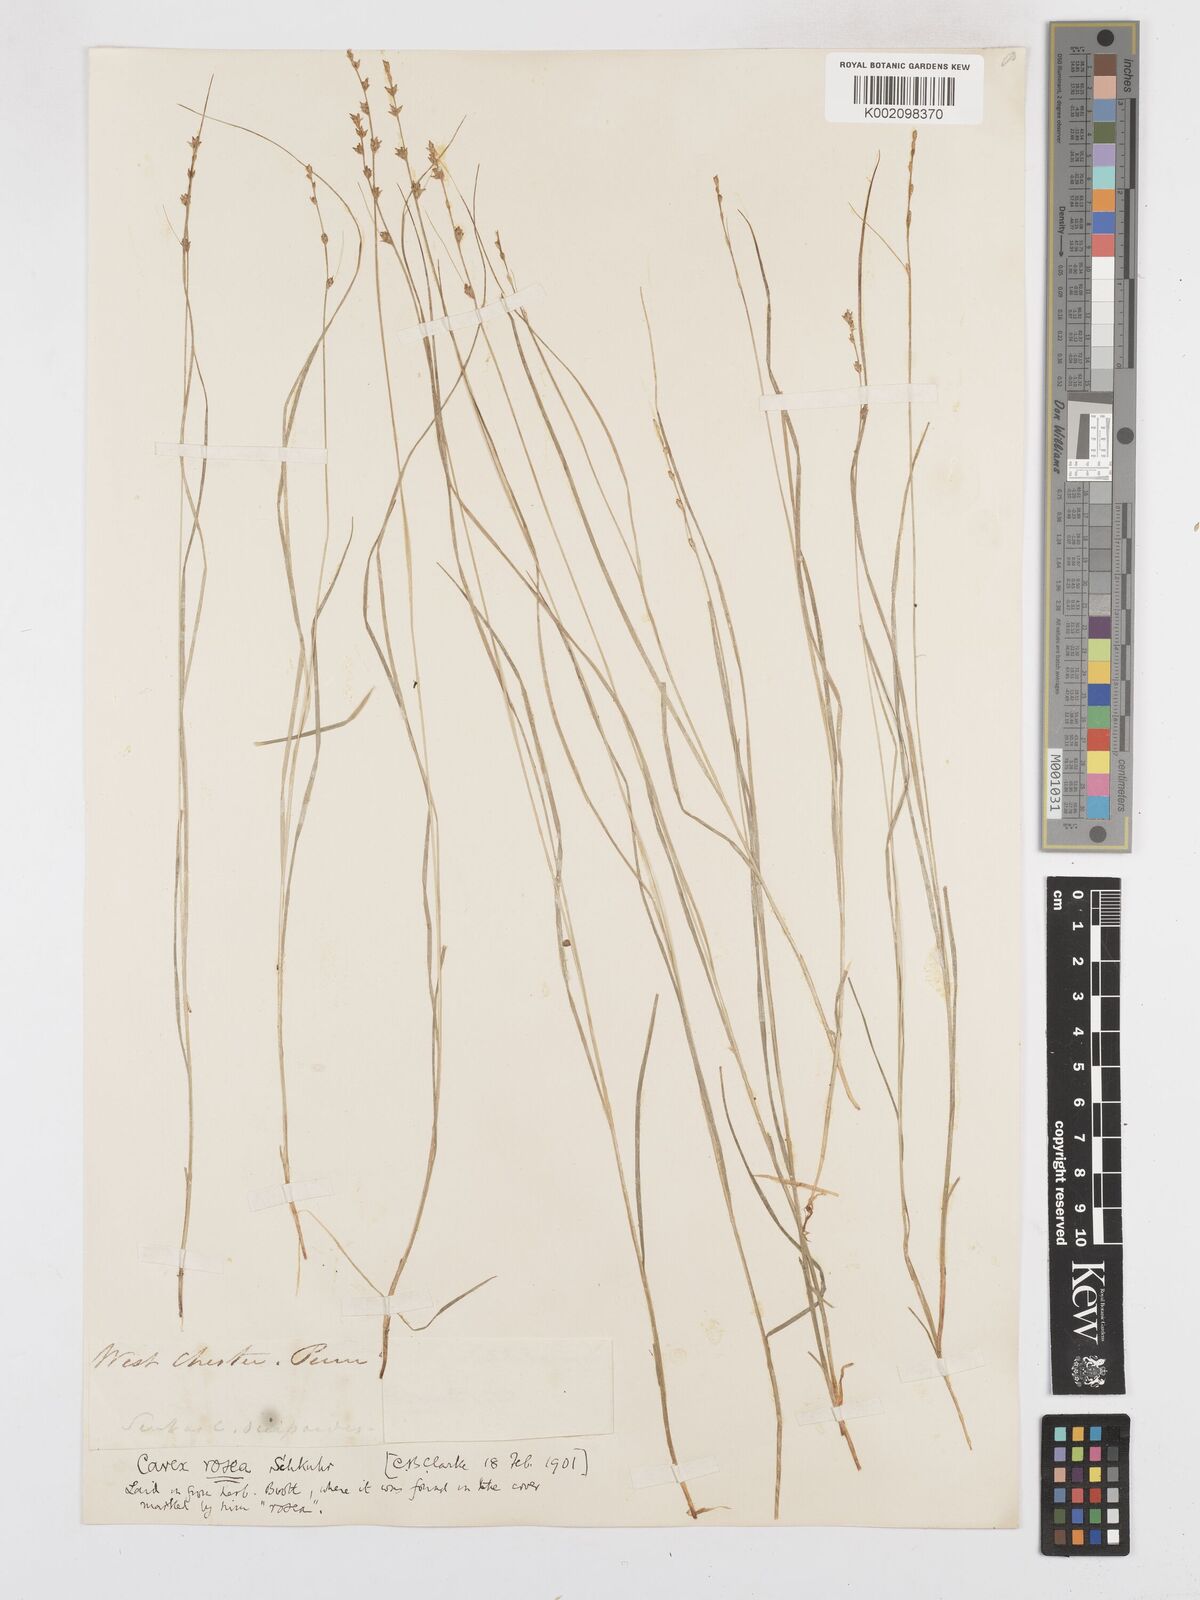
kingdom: Plantae
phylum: Tracheophyta
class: Liliopsida
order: Poales
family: Cyperaceae
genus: Carex
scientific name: Carex rosea
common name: Curly-styled wood sedge
